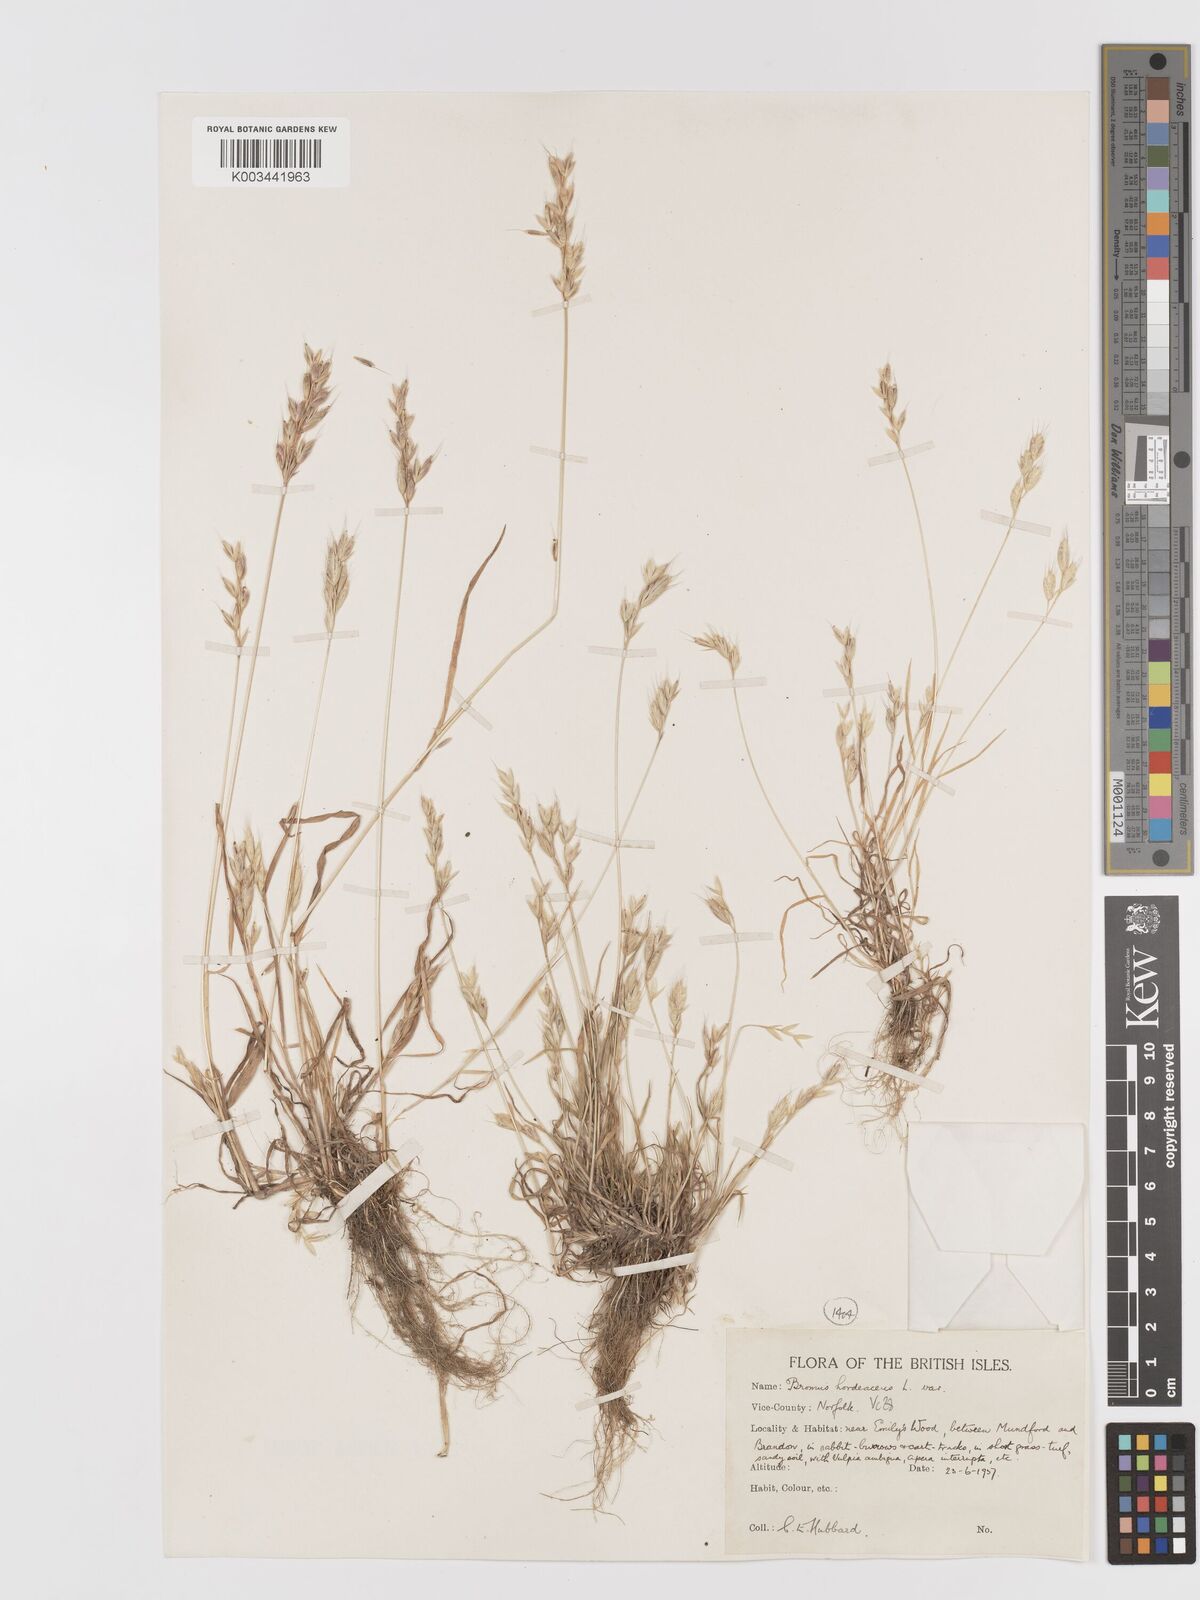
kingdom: Plantae
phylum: Tracheophyta
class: Liliopsida
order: Poales
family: Poaceae
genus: Bromus
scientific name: Bromus hordeaceus
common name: Soft brome
